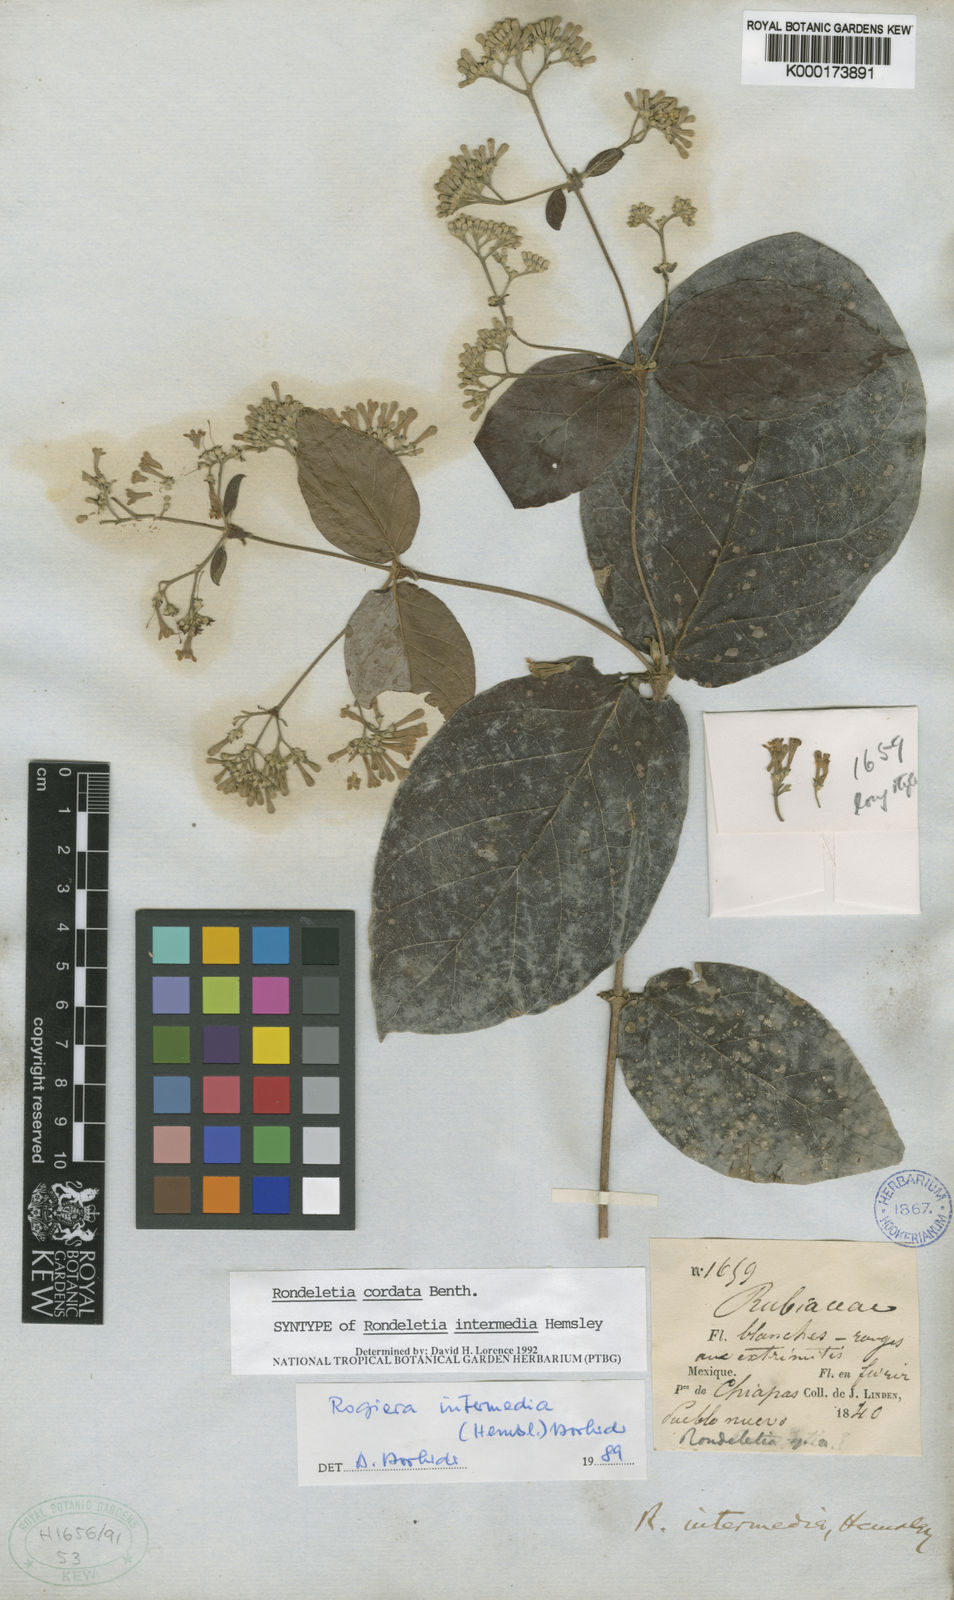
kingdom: Plantae
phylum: Tracheophyta
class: Magnoliopsida
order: Gentianales
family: Rubiaceae
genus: Rogiera
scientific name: Rogiera cordata
